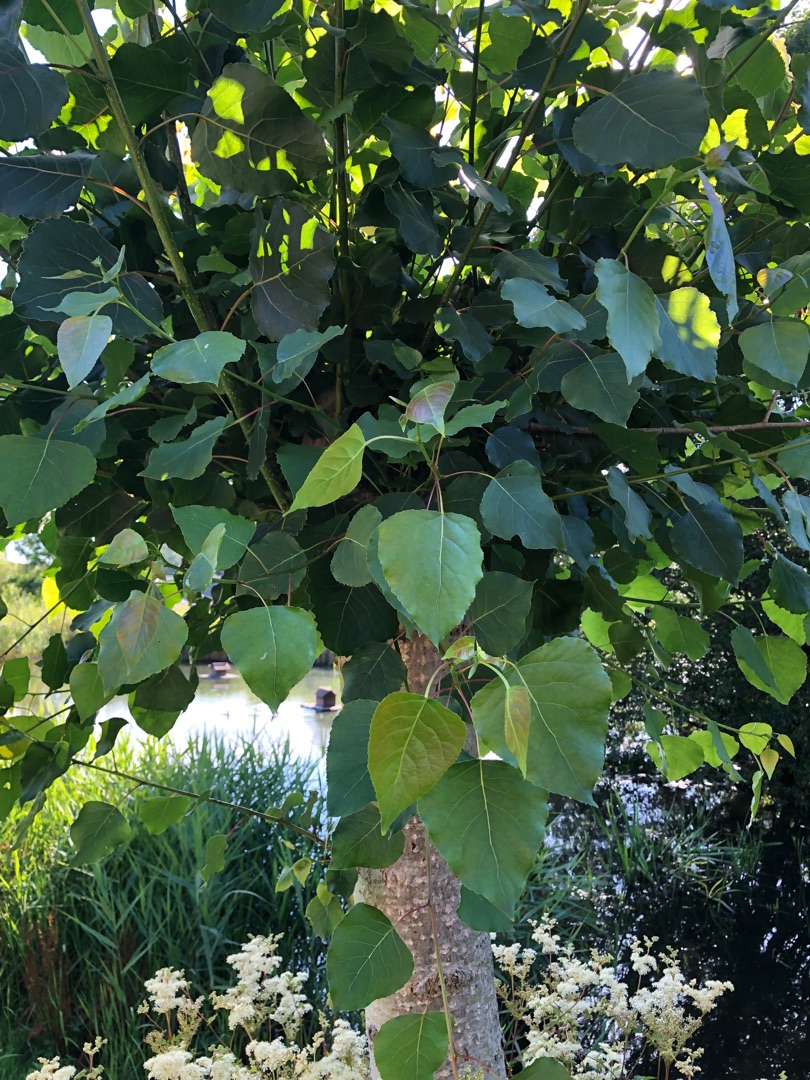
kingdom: Plantae
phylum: Tracheophyta
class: Magnoliopsida
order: Malpighiales
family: Salicaceae
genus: Populus
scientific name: Populus canadensis
